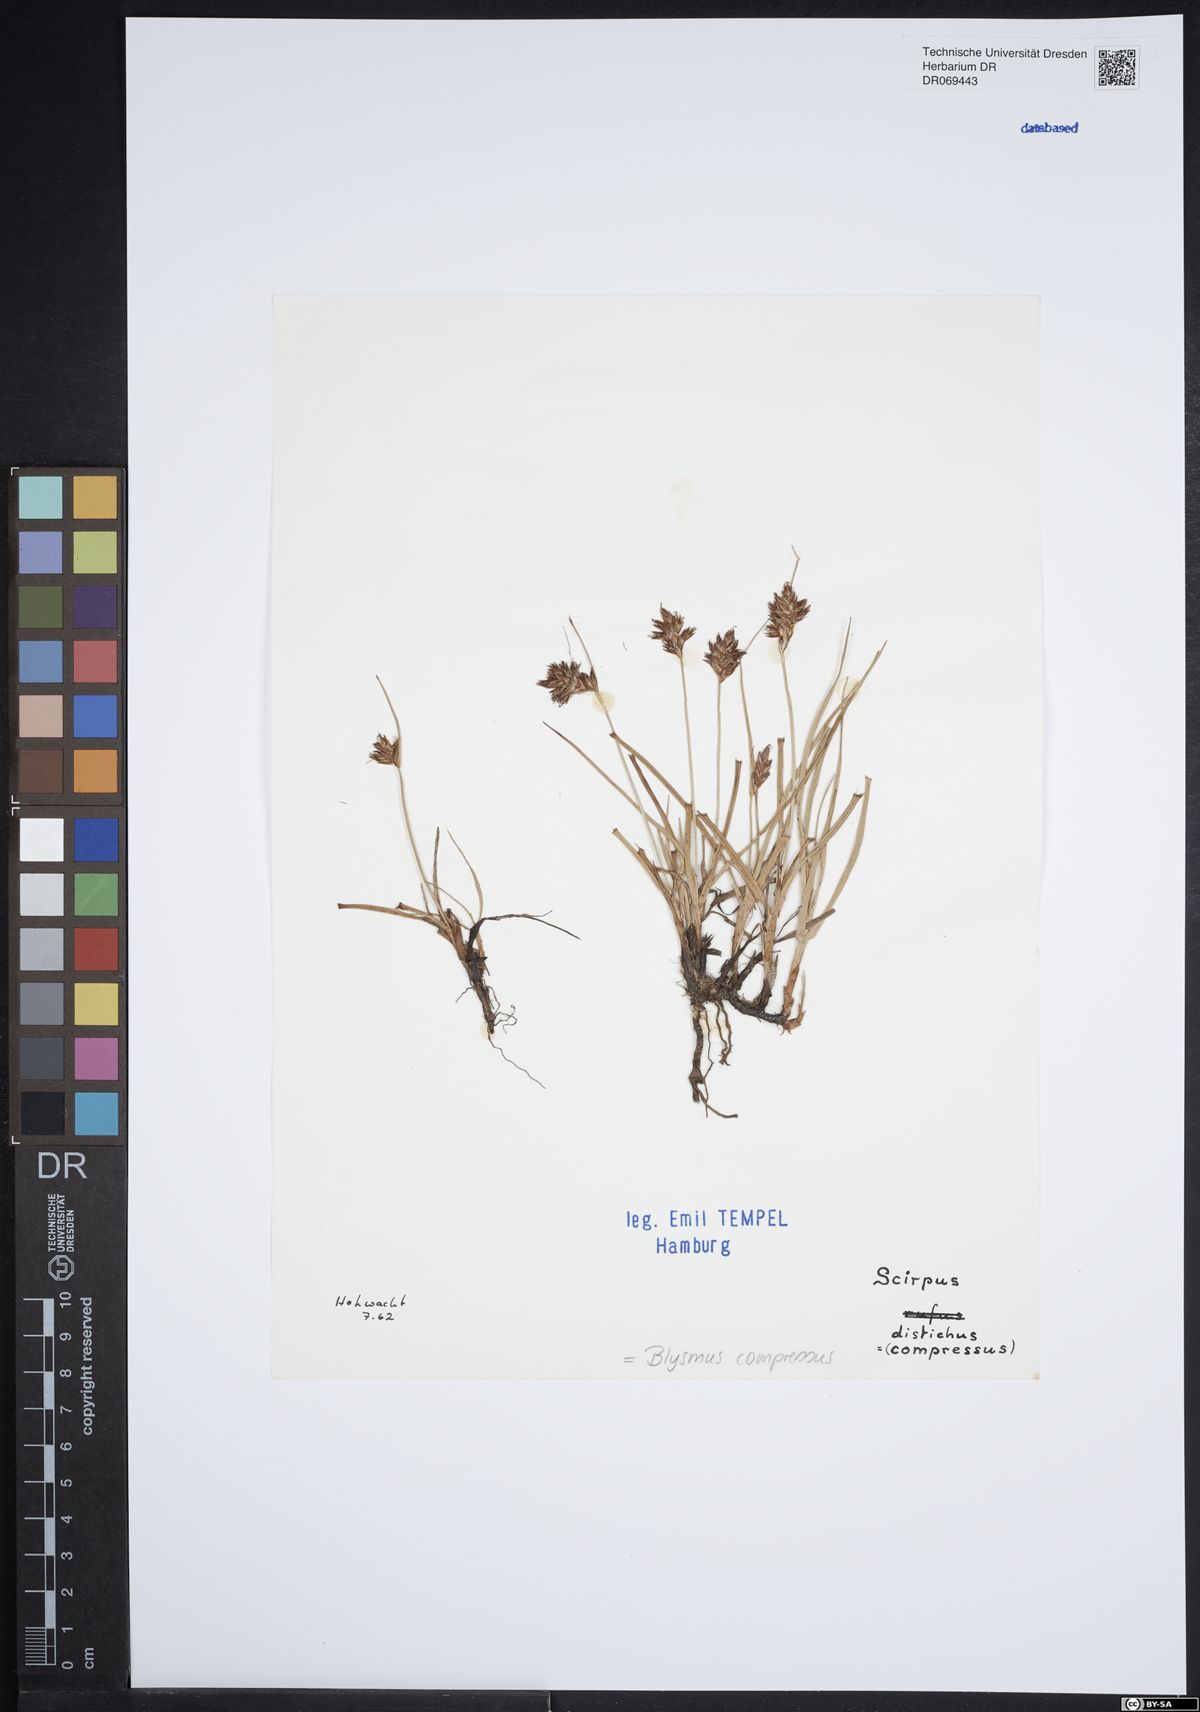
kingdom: Plantae
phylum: Tracheophyta
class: Liliopsida
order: Poales
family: Cyperaceae
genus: Blysmus
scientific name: Blysmus compressus
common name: Flat-sedge
